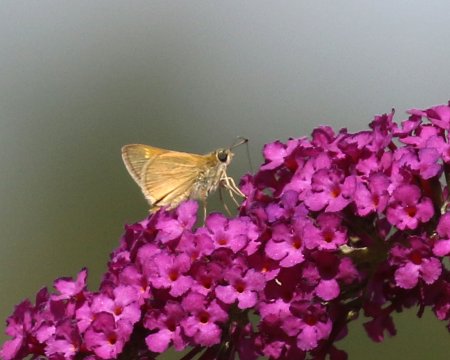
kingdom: Animalia
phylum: Arthropoda
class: Insecta
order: Lepidoptera
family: Hesperiidae
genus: Polites
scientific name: Polites themistocles
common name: Tawny-edged Skipper
